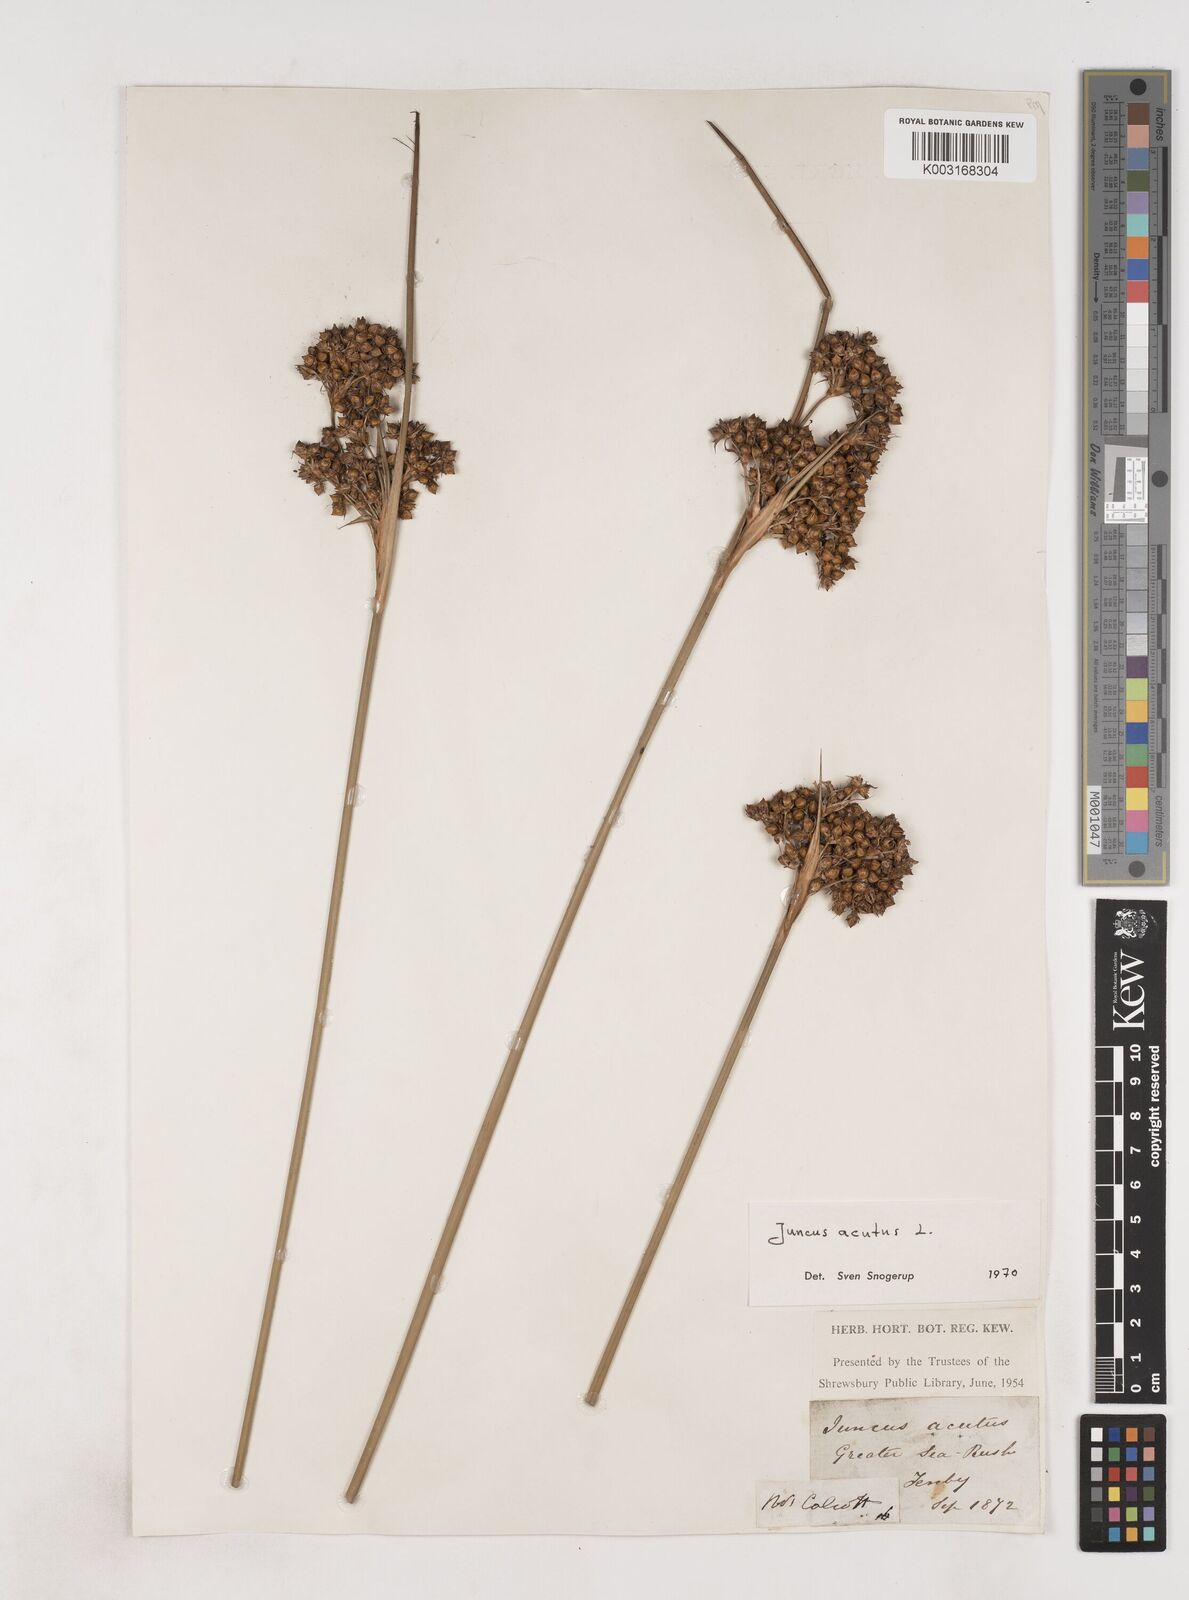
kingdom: Plantae
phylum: Tracheophyta
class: Liliopsida
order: Poales
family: Juncaceae
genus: Juncus
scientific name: Juncus acutus
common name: Sharp rush
